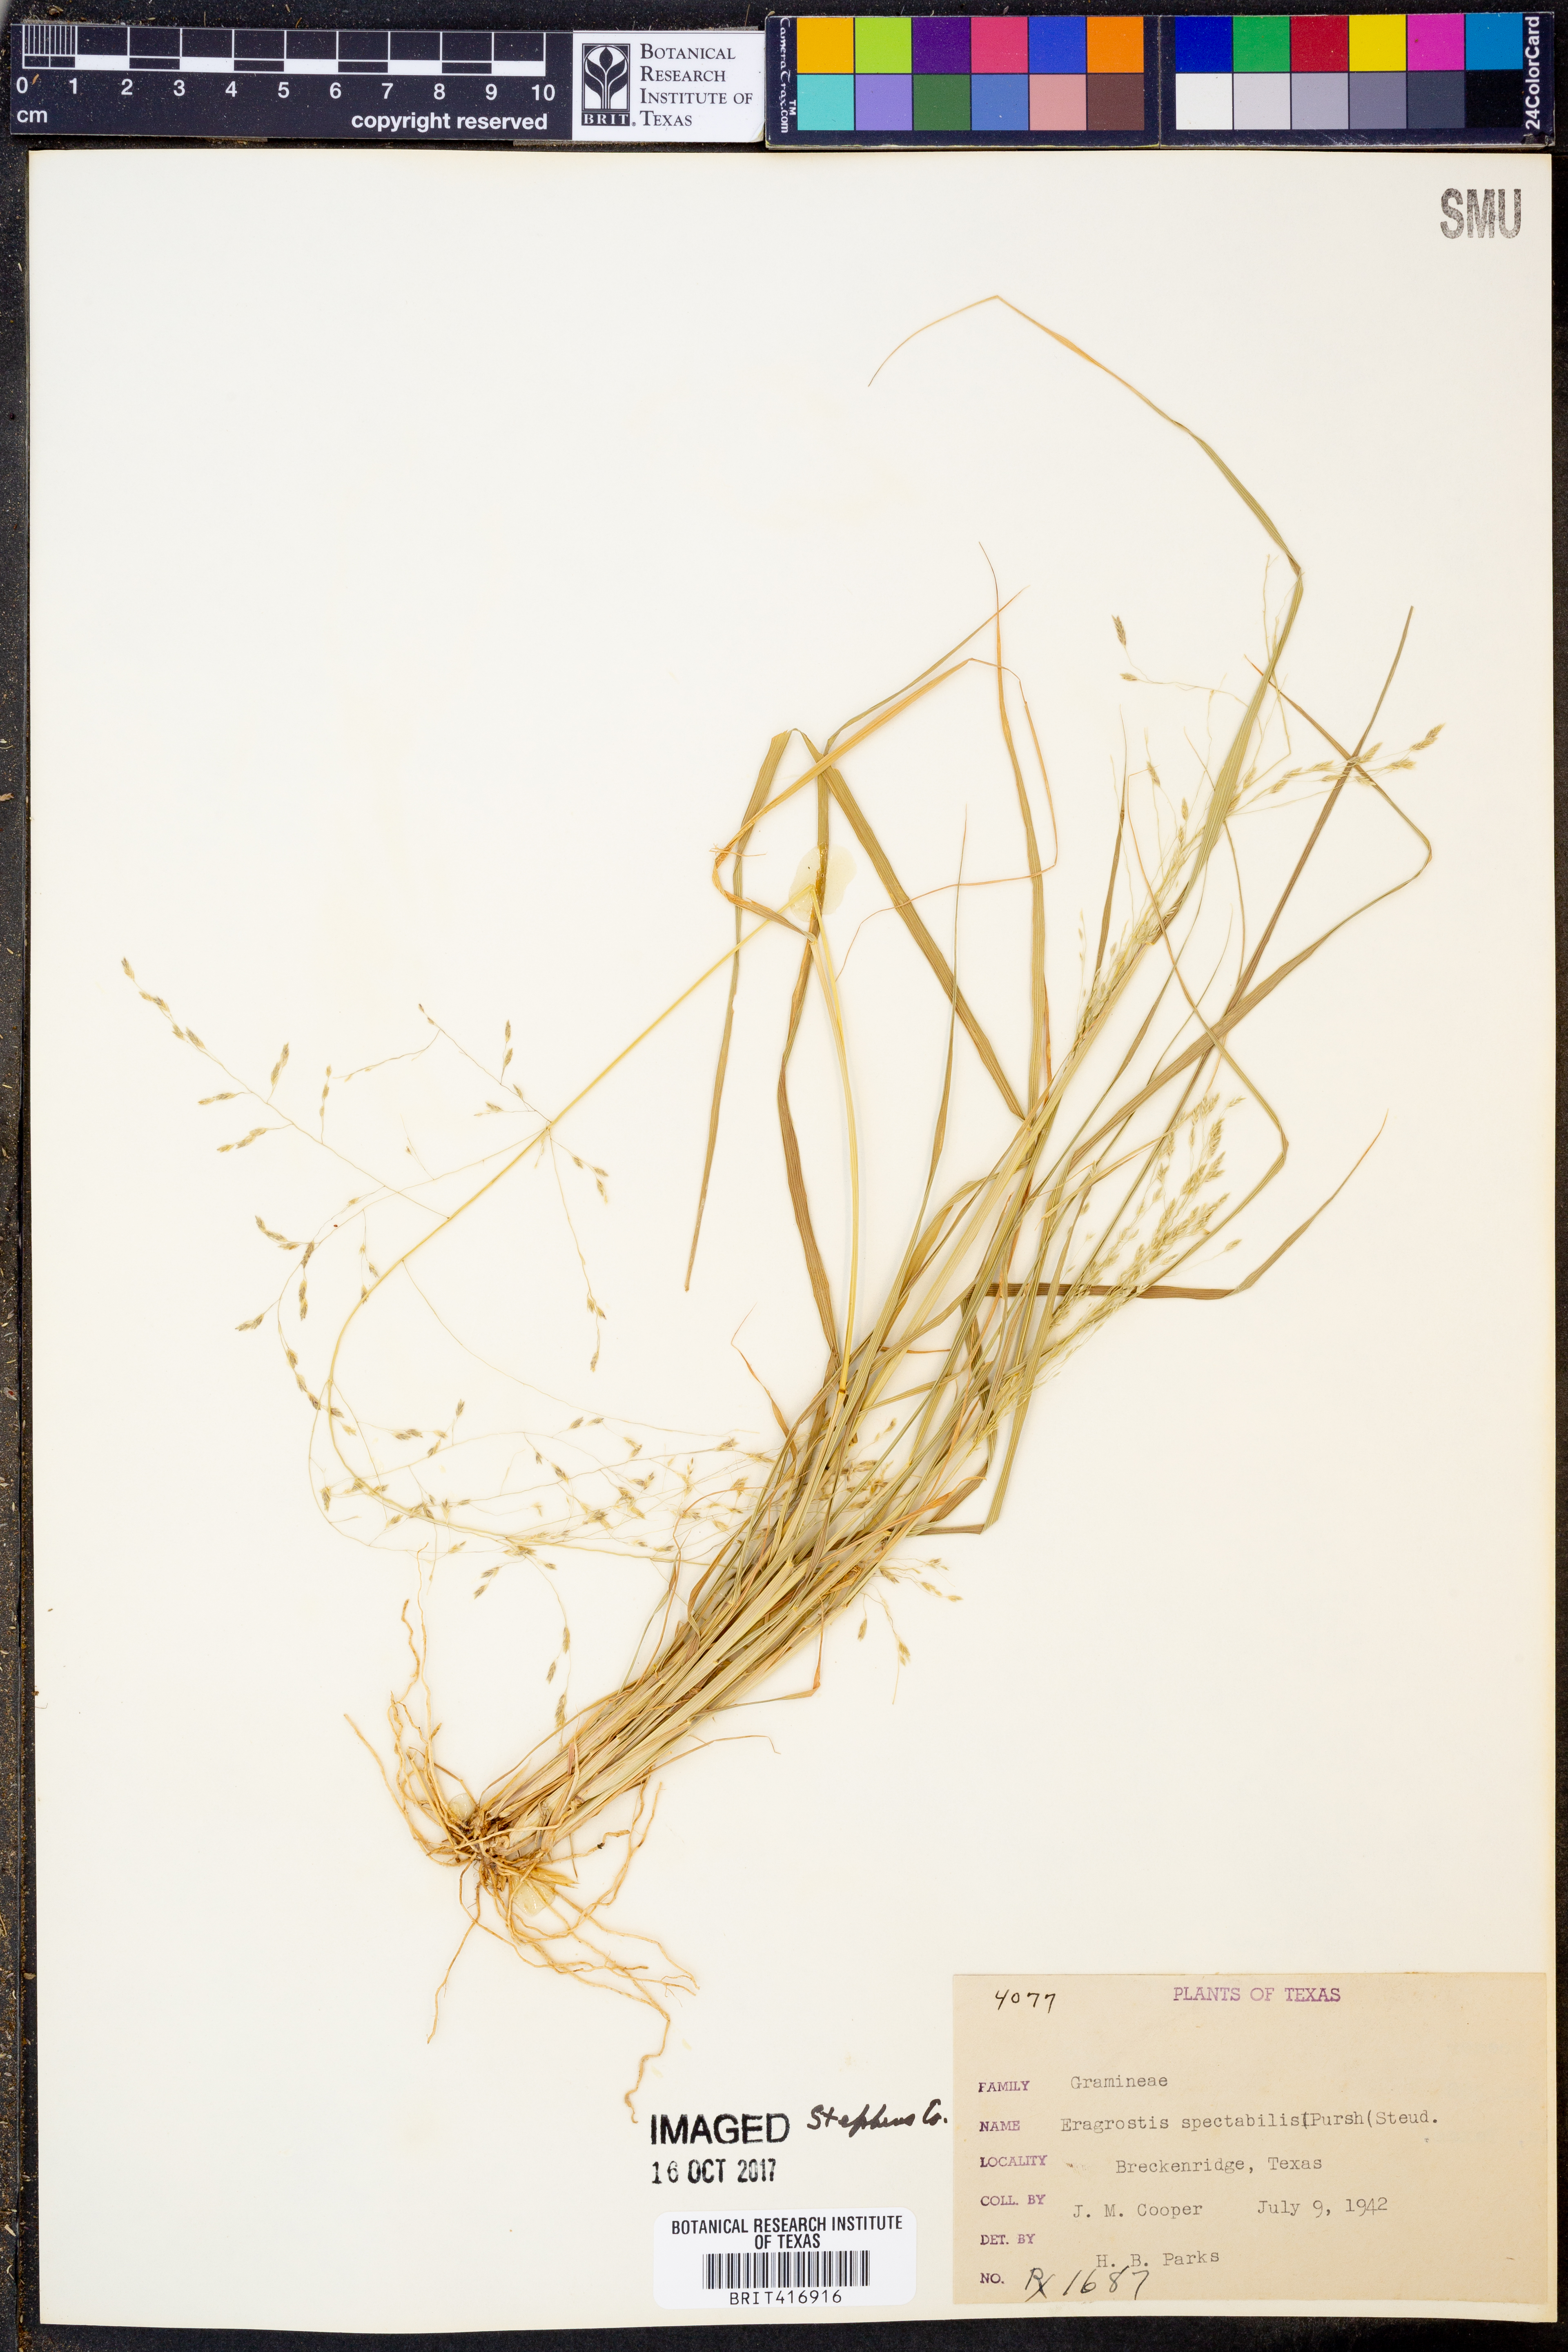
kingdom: Plantae
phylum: Tracheophyta
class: Liliopsida
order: Poales
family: Poaceae
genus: Eragrostis
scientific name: Eragrostis spectabilis
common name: Petticoat-climber
